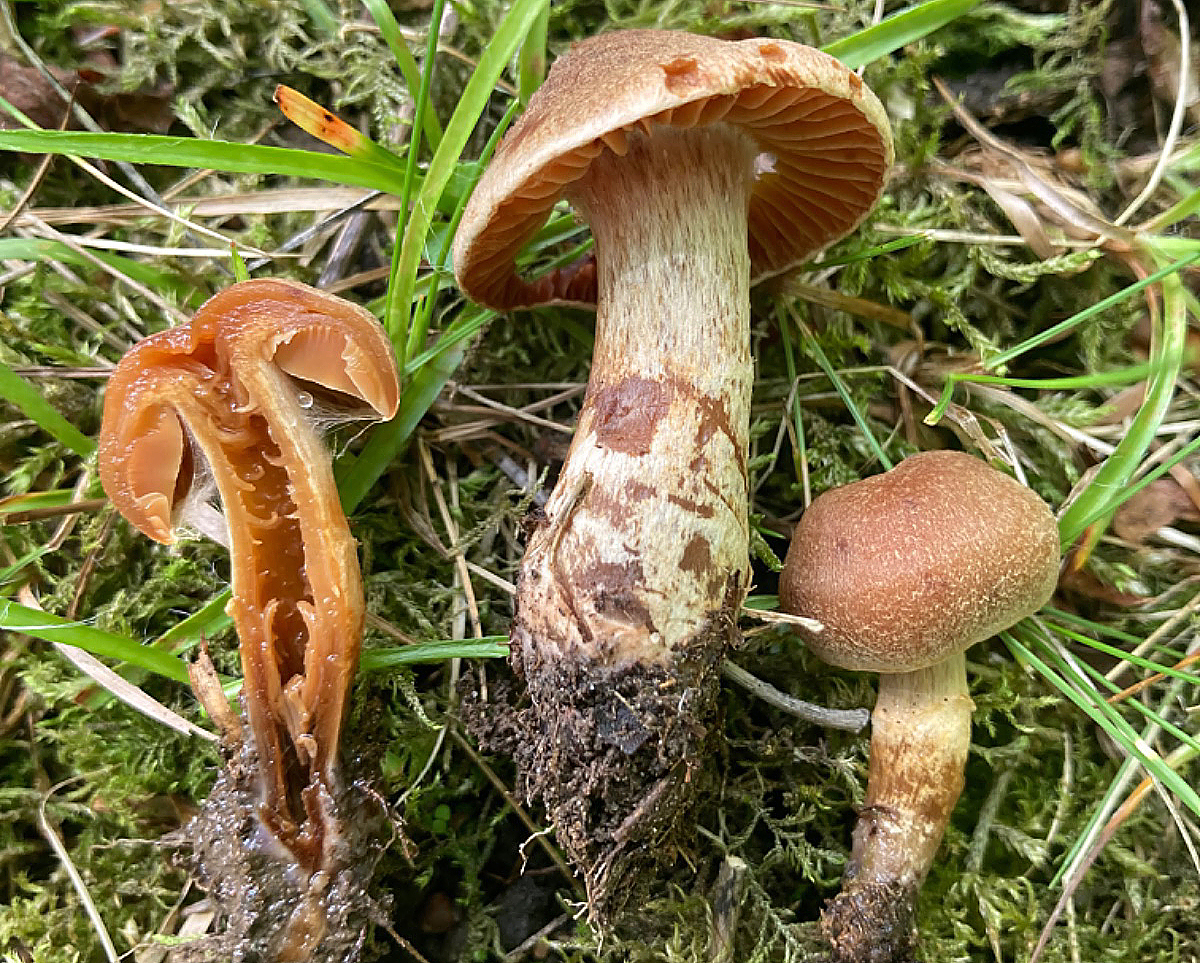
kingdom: Fungi
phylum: Basidiomycota
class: Agaricomycetes
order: Agaricales
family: Cortinariaceae
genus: Cortinarius
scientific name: Cortinarius hinnuleus
